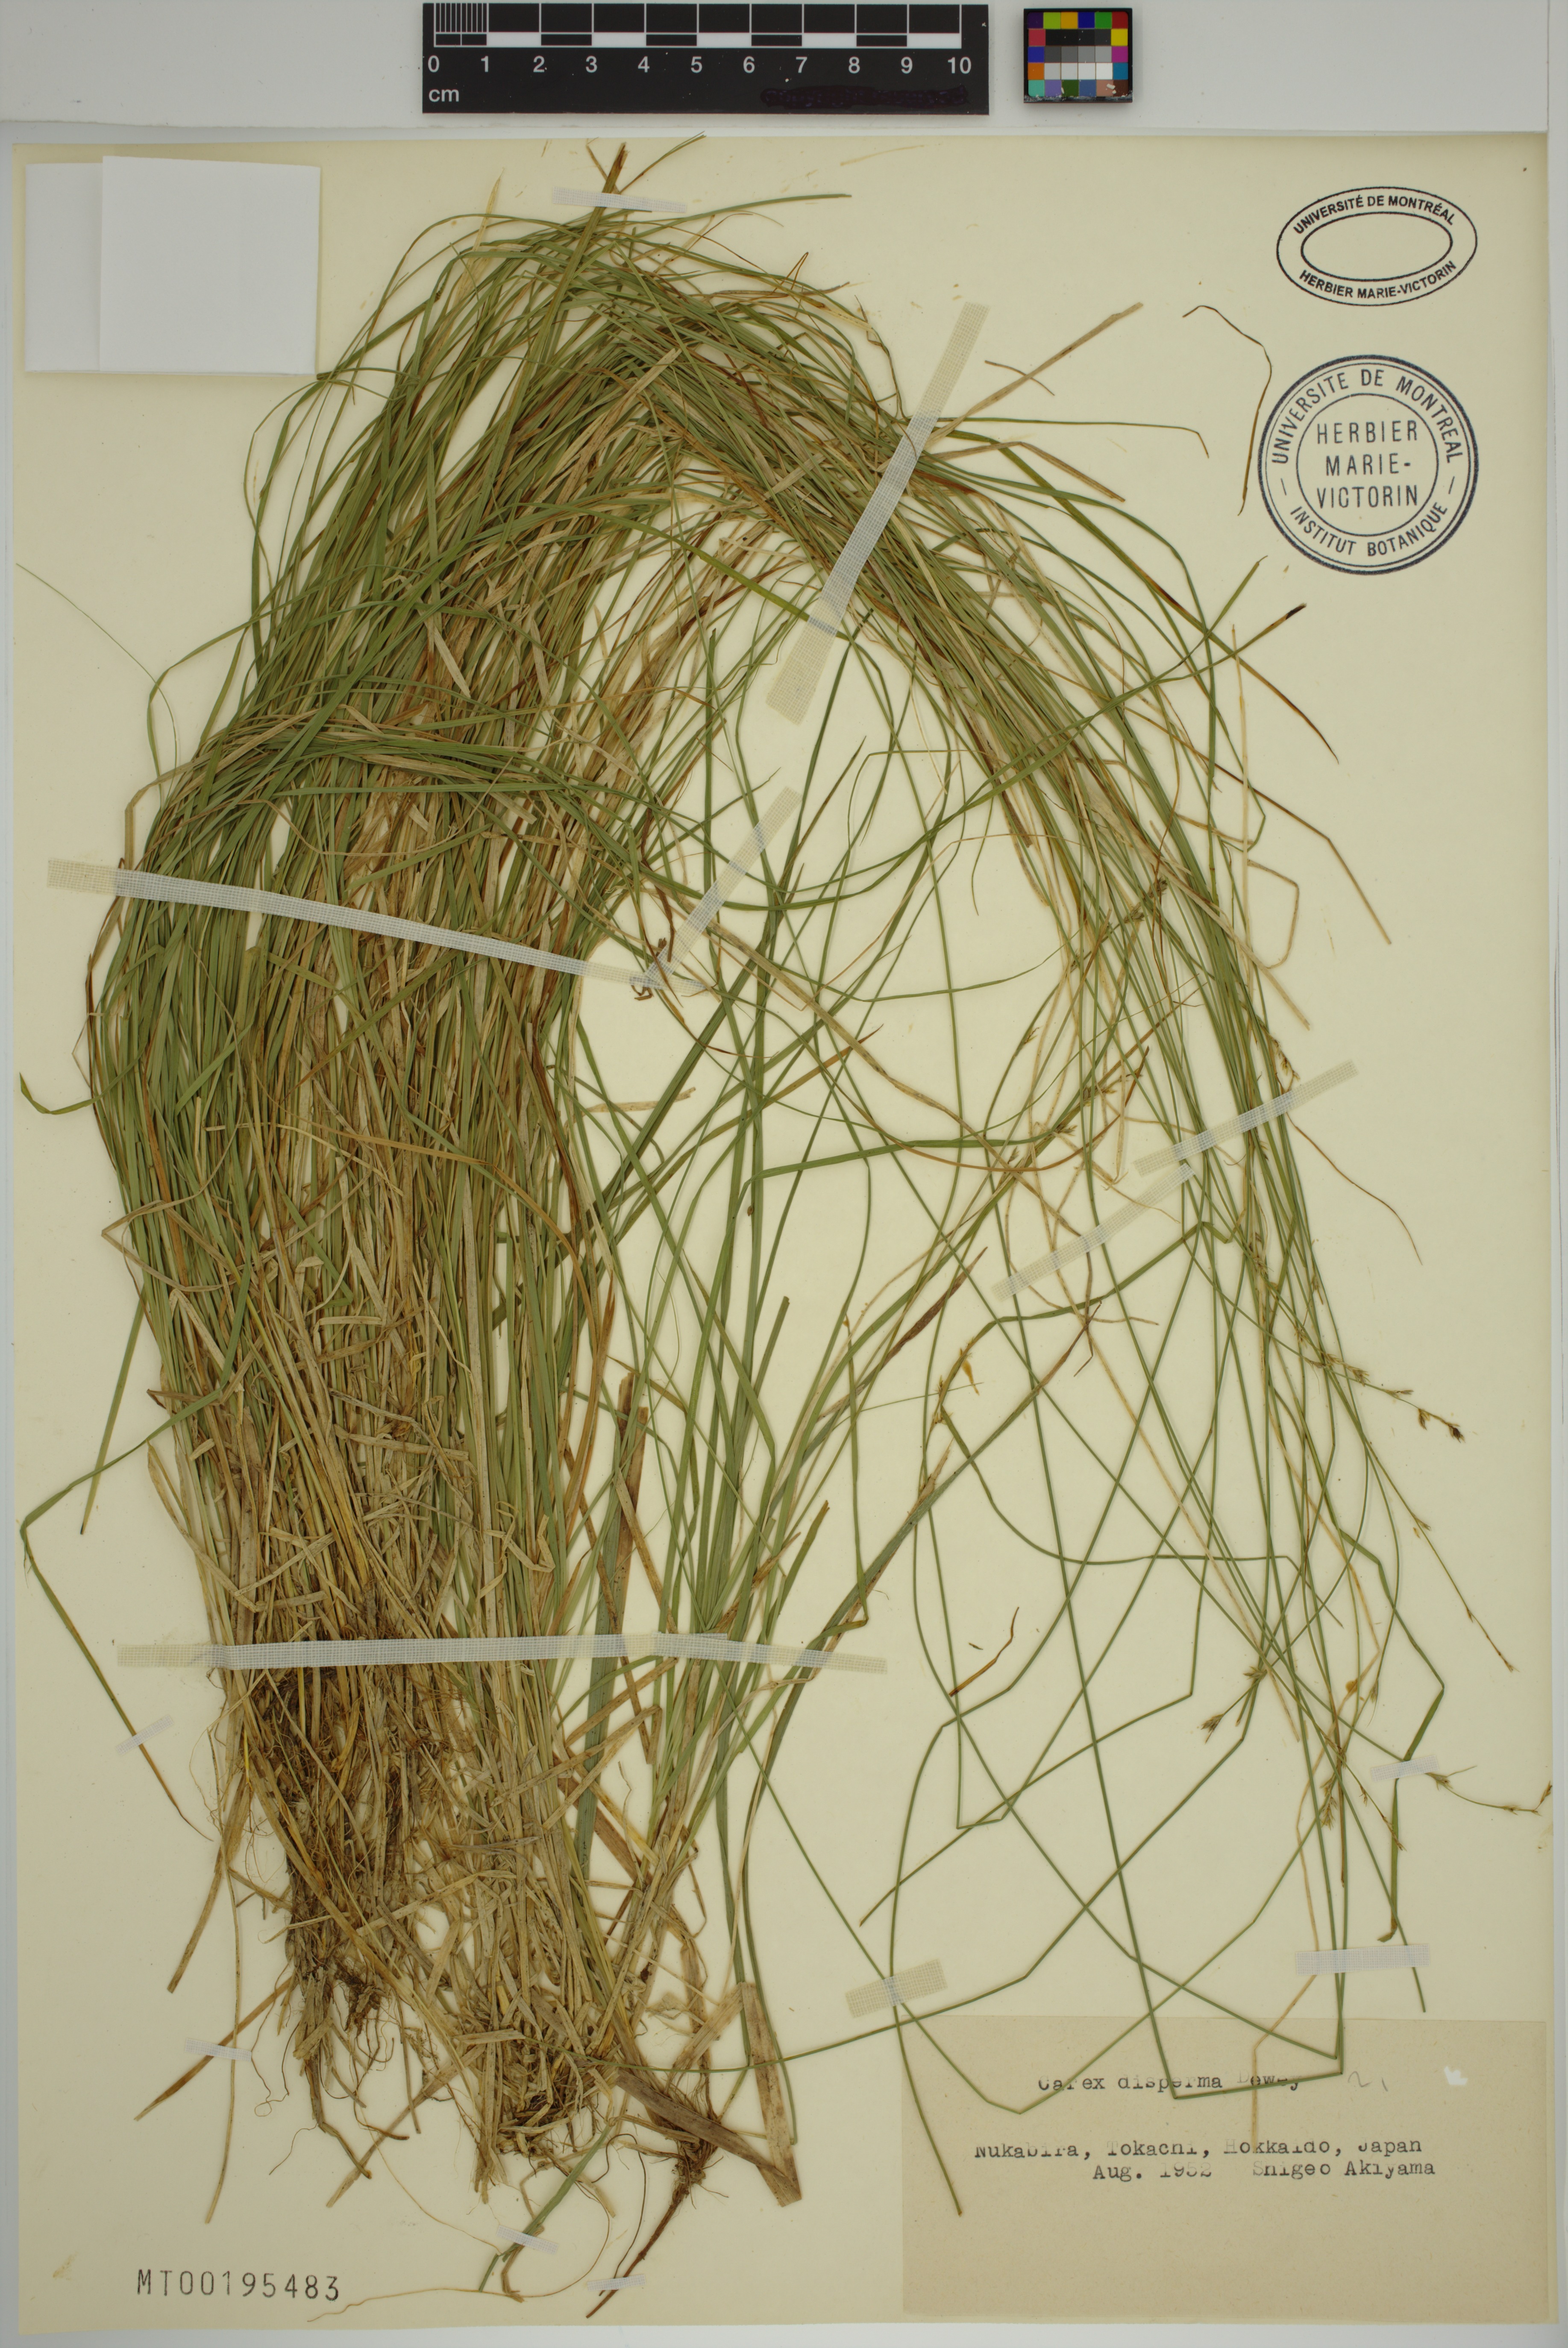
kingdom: Plantae
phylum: Tracheophyta
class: Liliopsida
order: Poales
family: Cyperaceae
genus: Carex
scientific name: Carex disperma
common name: Short-leaved sedge
